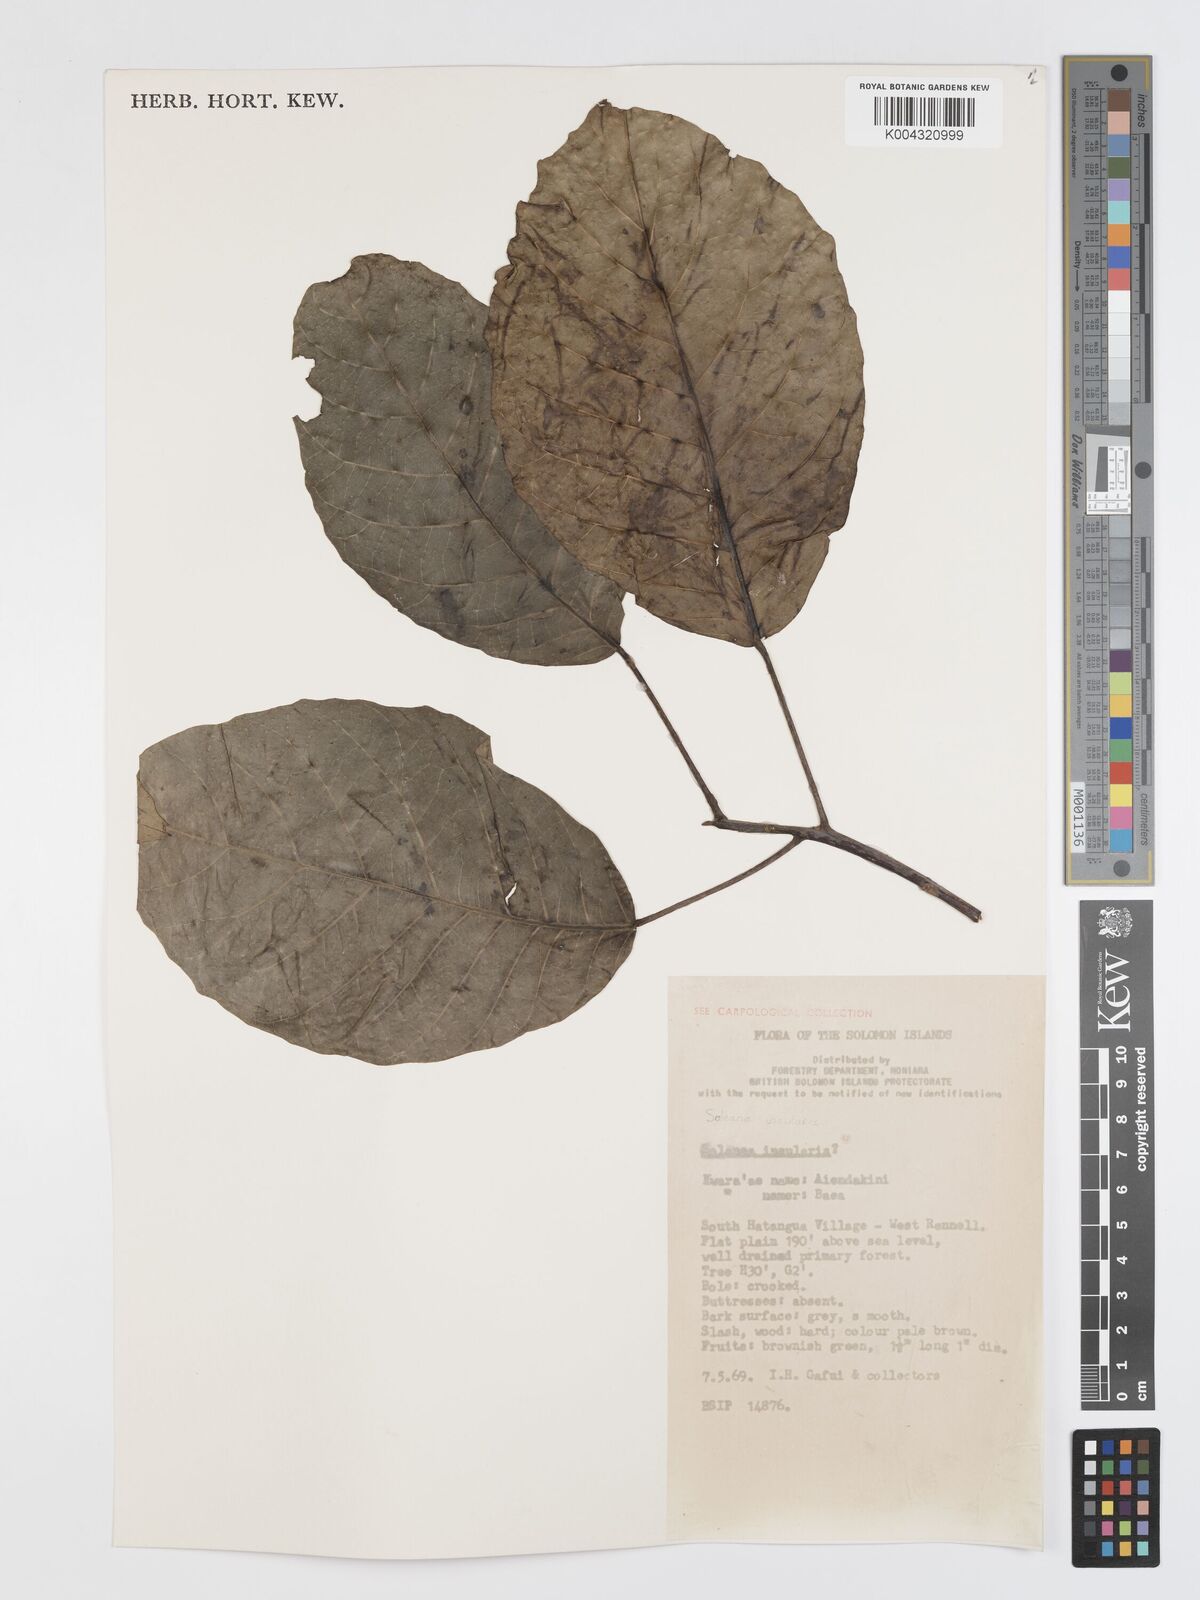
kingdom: Plantae
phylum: Tracheophyta
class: Magnoliopsida
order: Oxalidales
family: Elaeocarpaceae
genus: Sloanea
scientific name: Sloanea insularis
